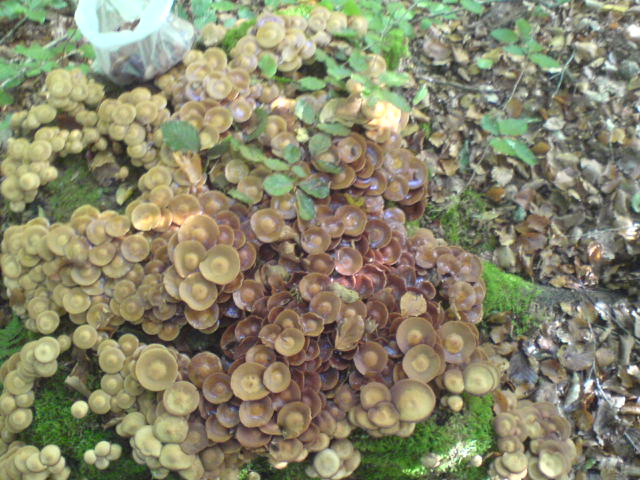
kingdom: Fungi
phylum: Basidiomycota
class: Agaricomycetes
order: Agaricales
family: Strophariaceae
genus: Kuehneromyces
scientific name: Kuehneromyces mutabilis
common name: foranderlig skælhat
